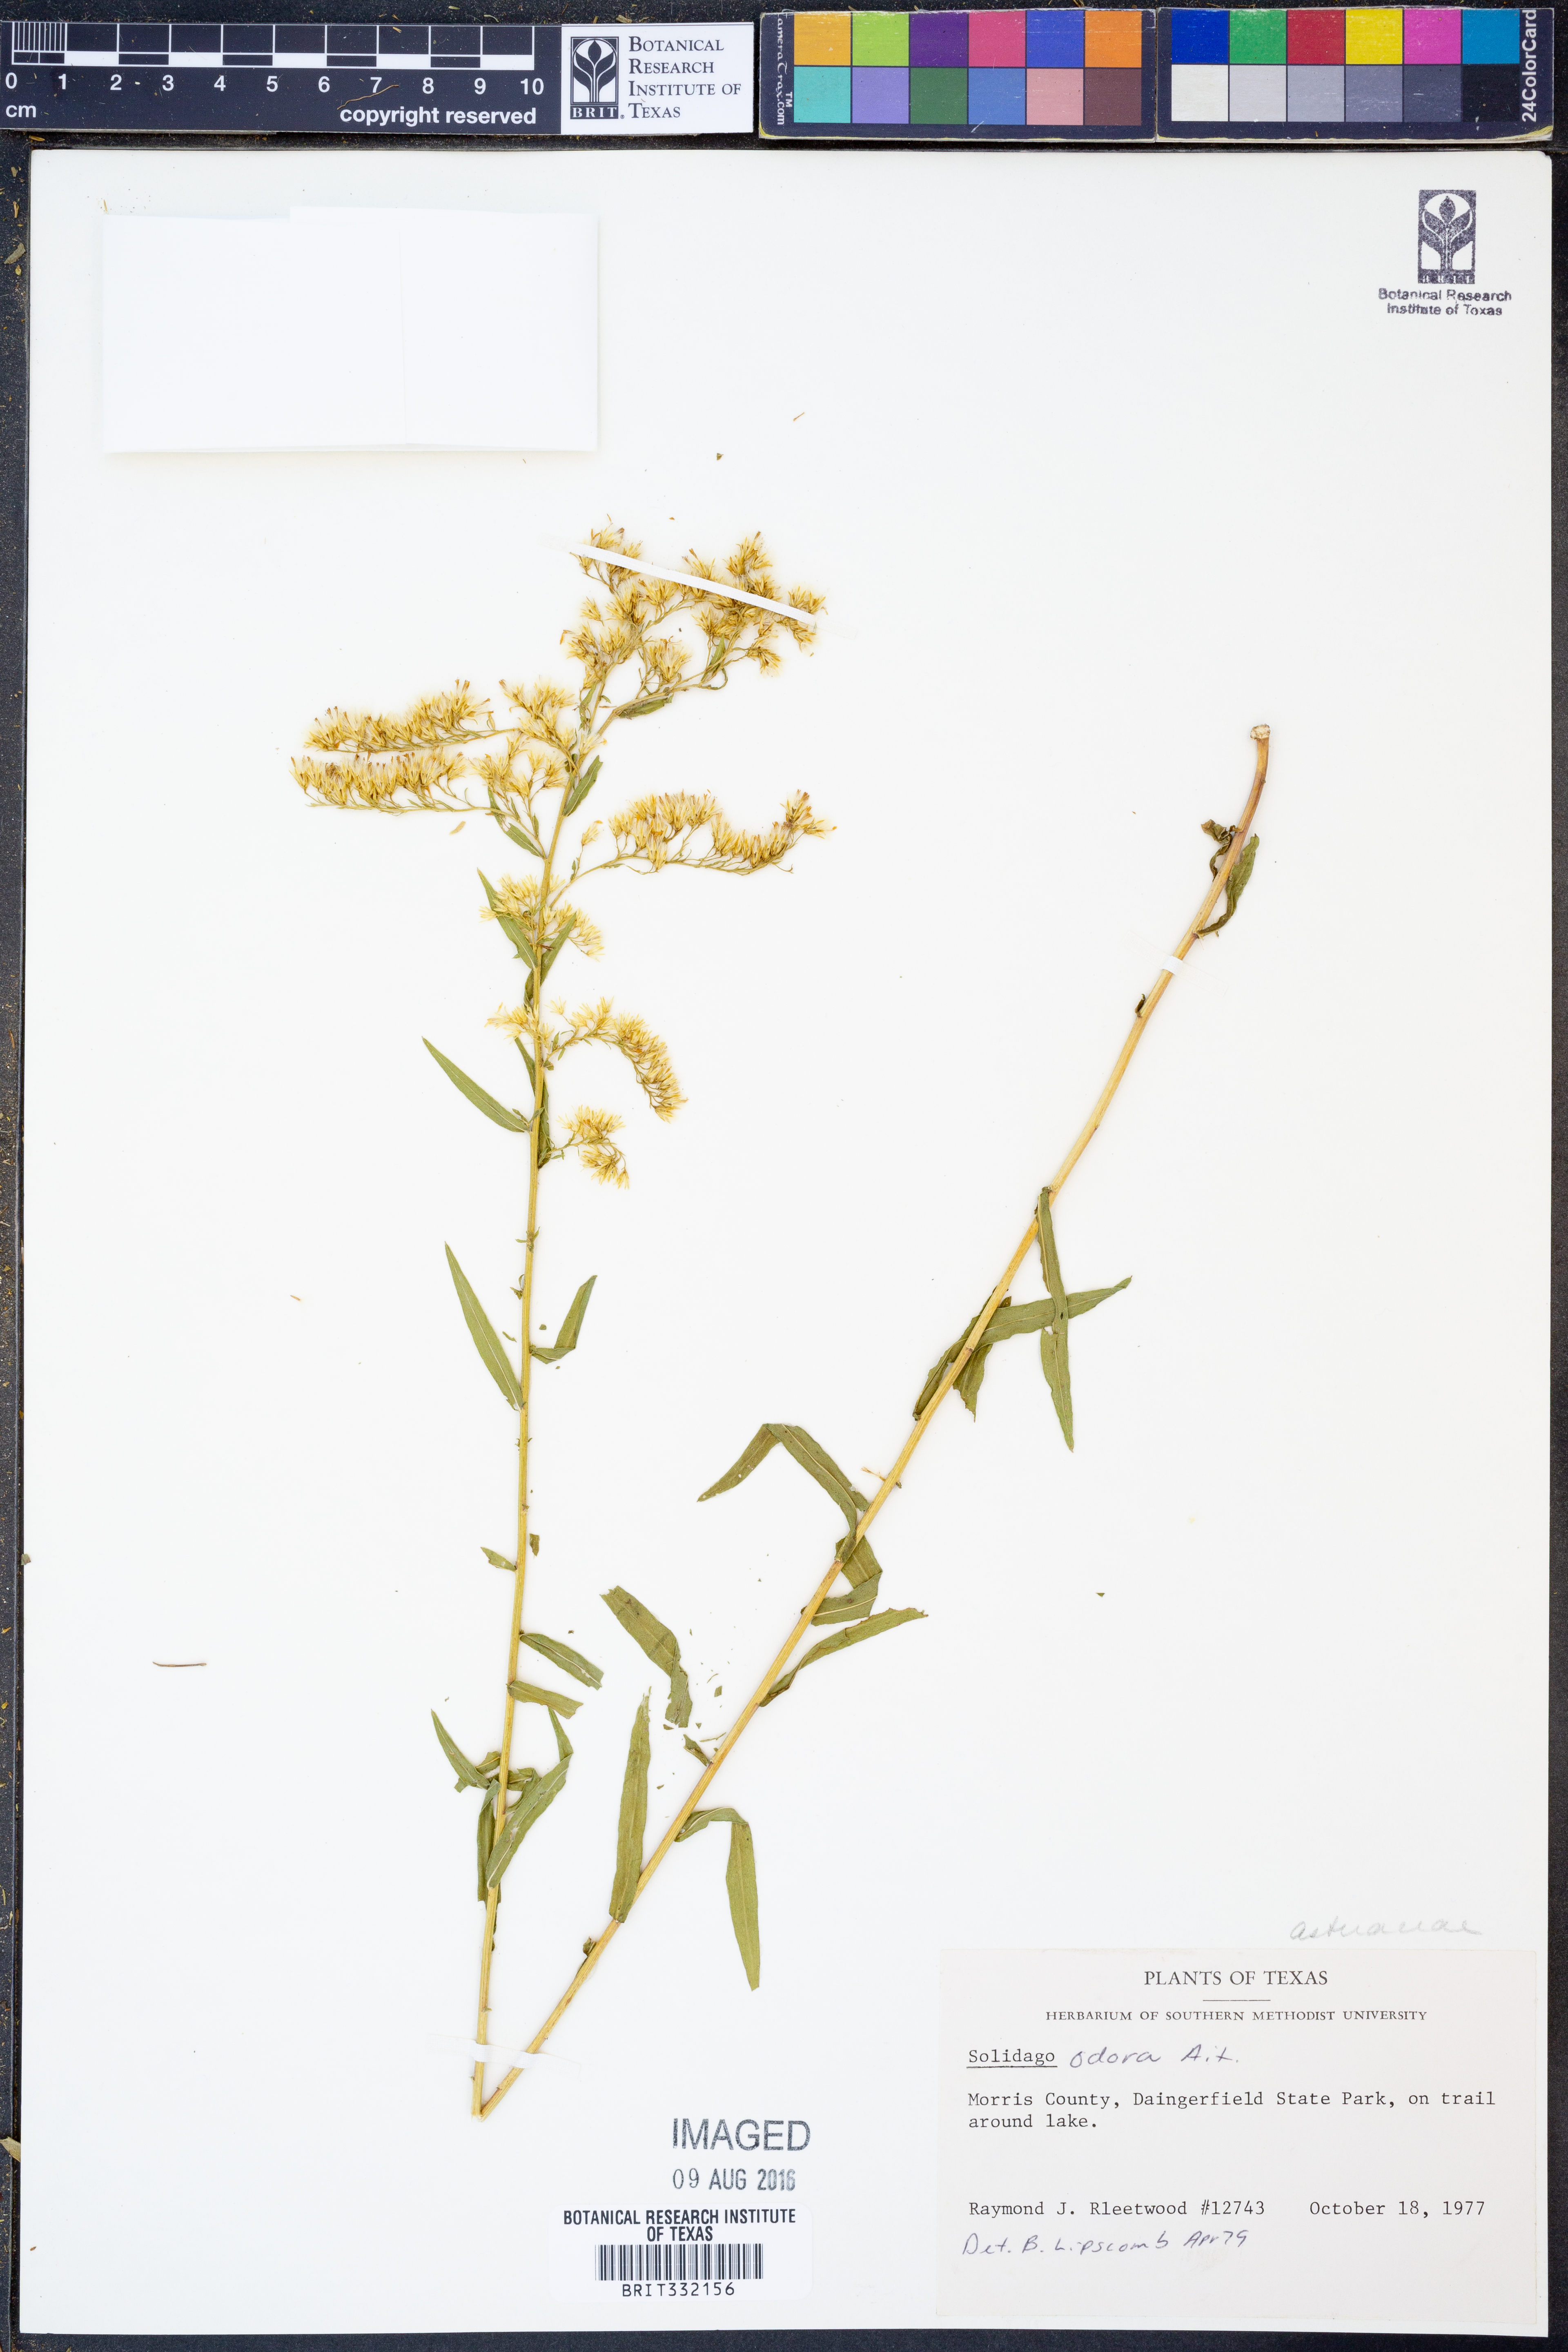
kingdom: Plantae
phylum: Tracheophyta
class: Magnoliopsida
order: Asterales
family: Asteraceae
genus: Solidago
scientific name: Solidago odora
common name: Anise-scented goldenrod
